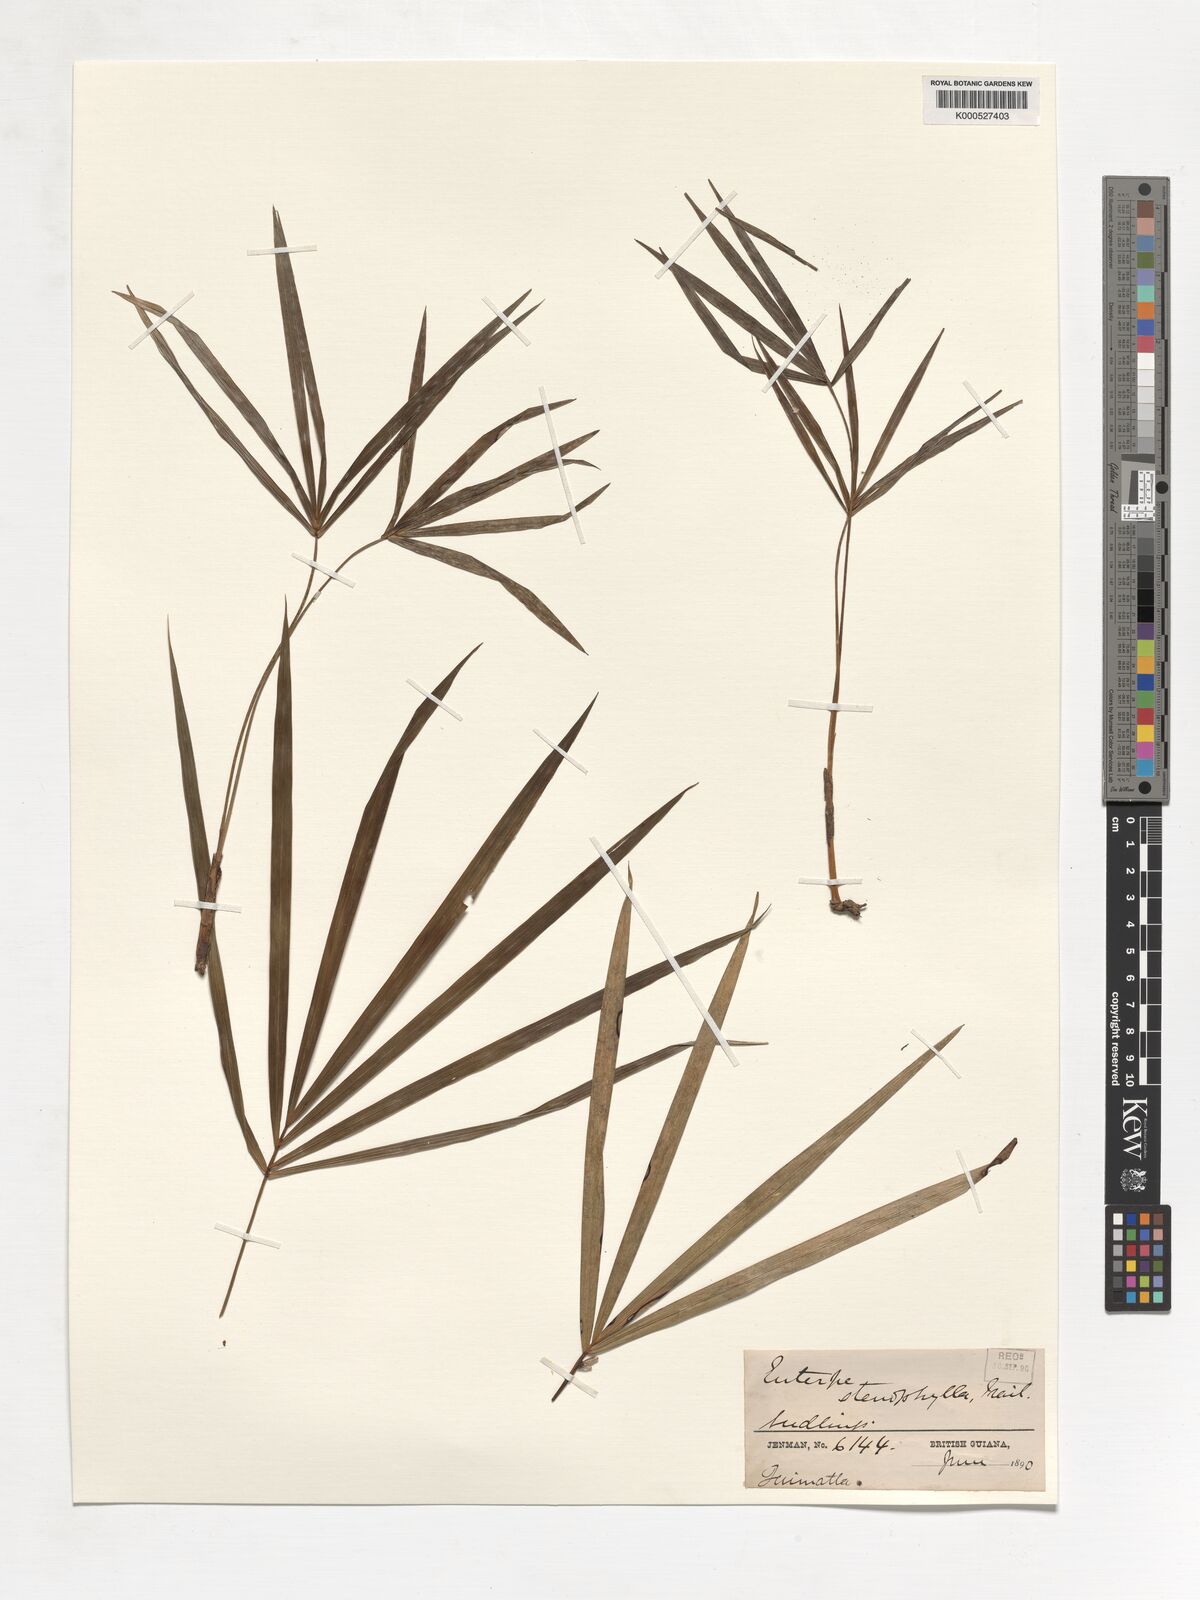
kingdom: Plantae
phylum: Tracheophyta
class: Liliopsida
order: Arecales
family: Arecaceae
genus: Euterpe
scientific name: Euterpe precatoria
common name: Mountain-cabbage
